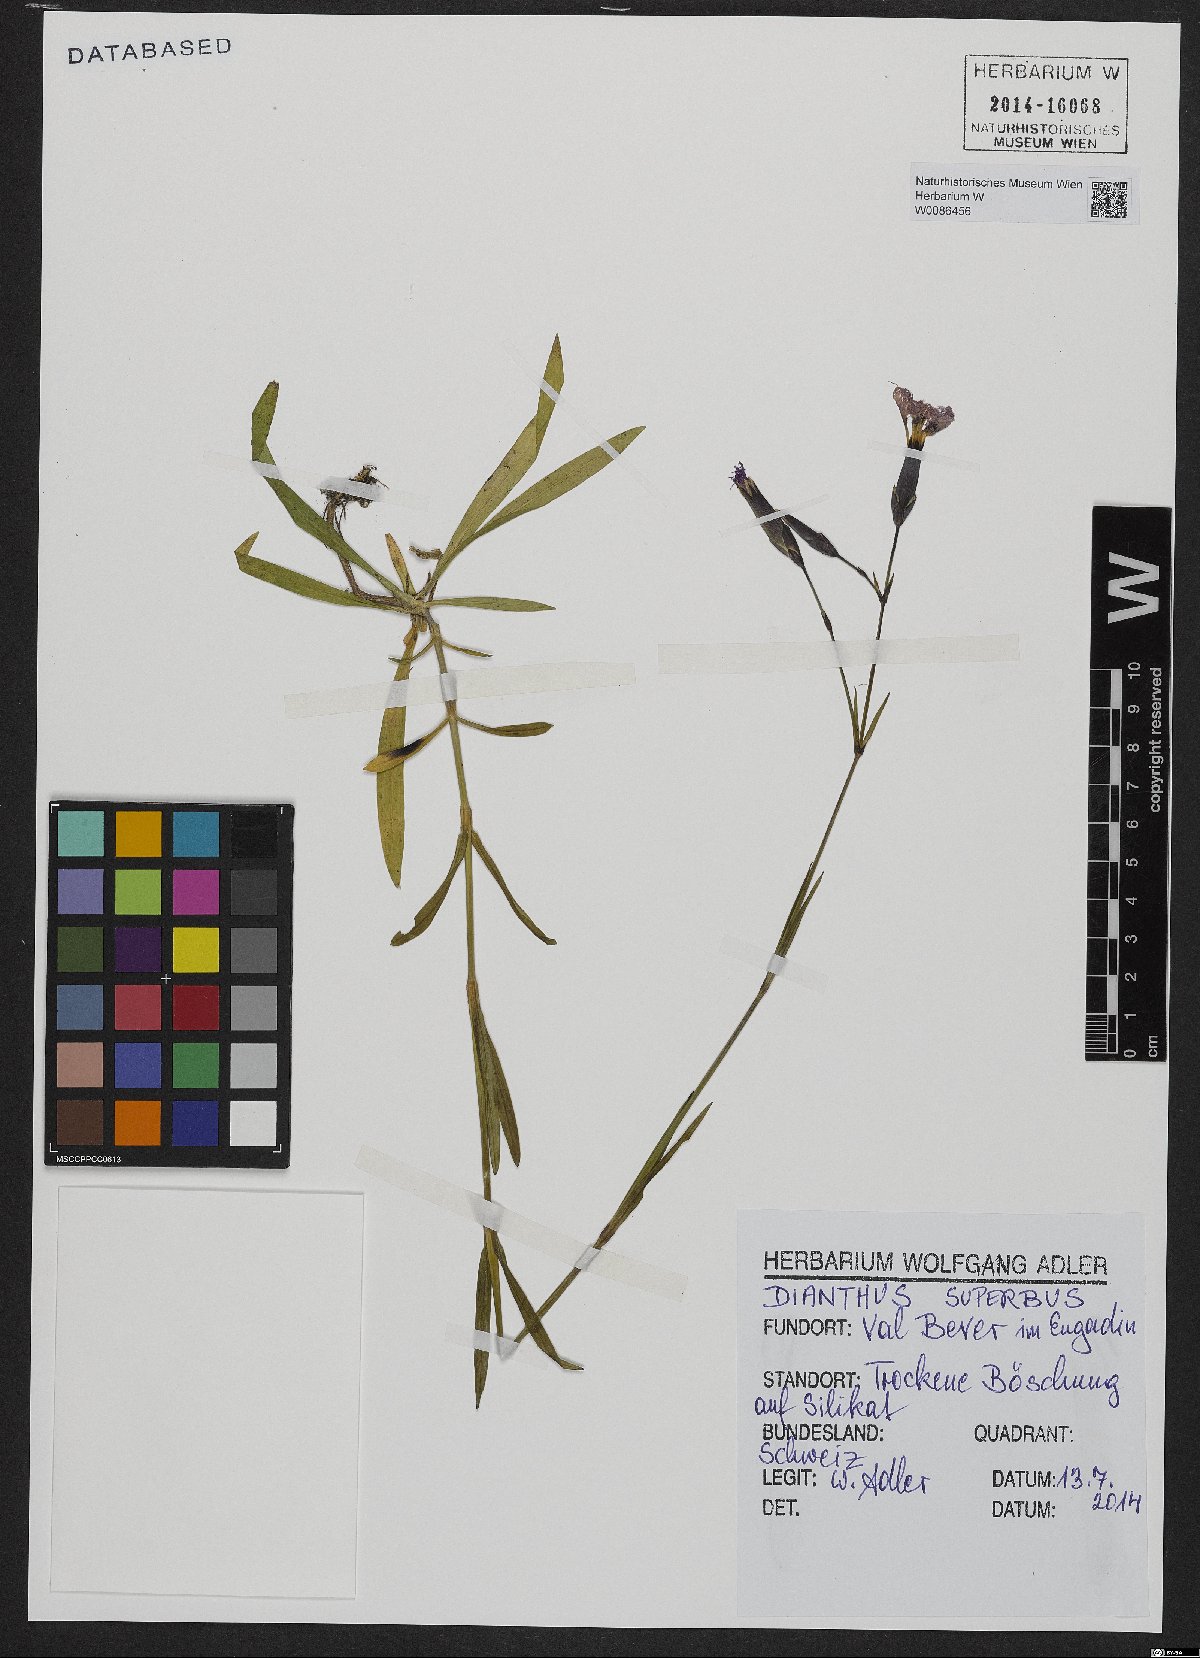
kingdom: Plantae
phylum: Tracheophyta
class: Magnoliopsida
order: Caryophyllales
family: Caryophyllaceae
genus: Dianthus
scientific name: Dianthus superbus
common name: Fringed pink
